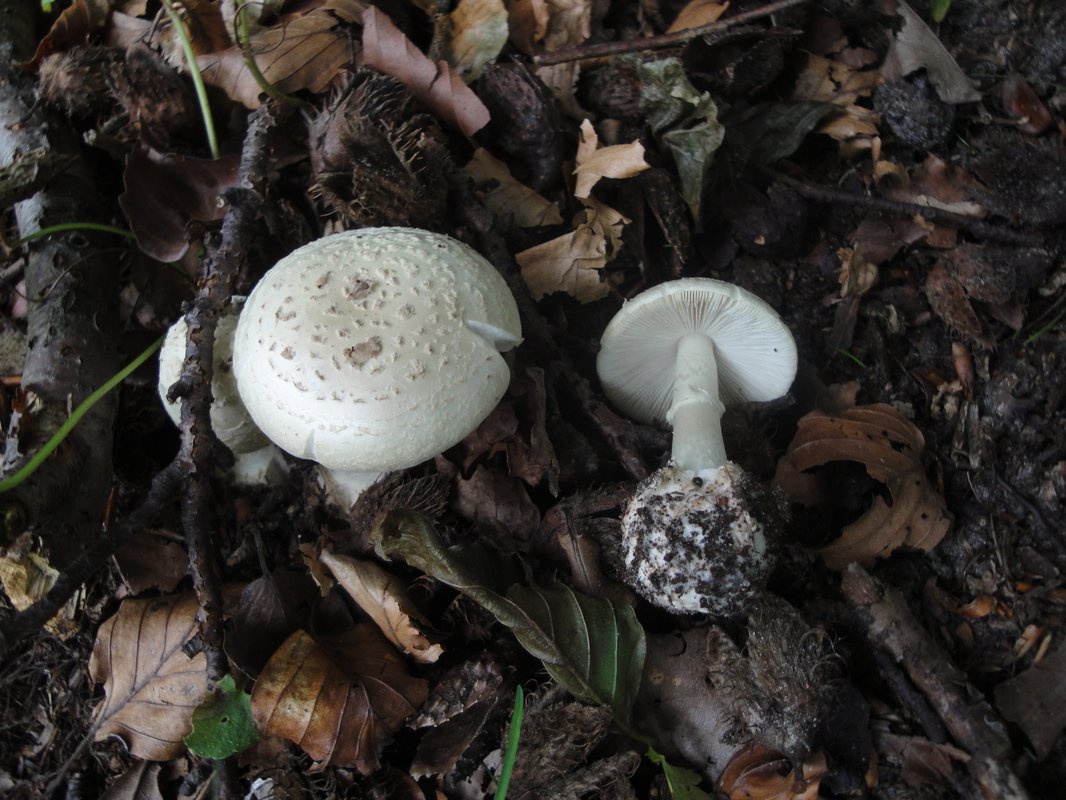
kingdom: Fungi
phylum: Basidiomycota
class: Agaricomycetes
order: Agaricales
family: Amanitaceae
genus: Amanita
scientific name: Amanita citrina
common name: False death-cap
